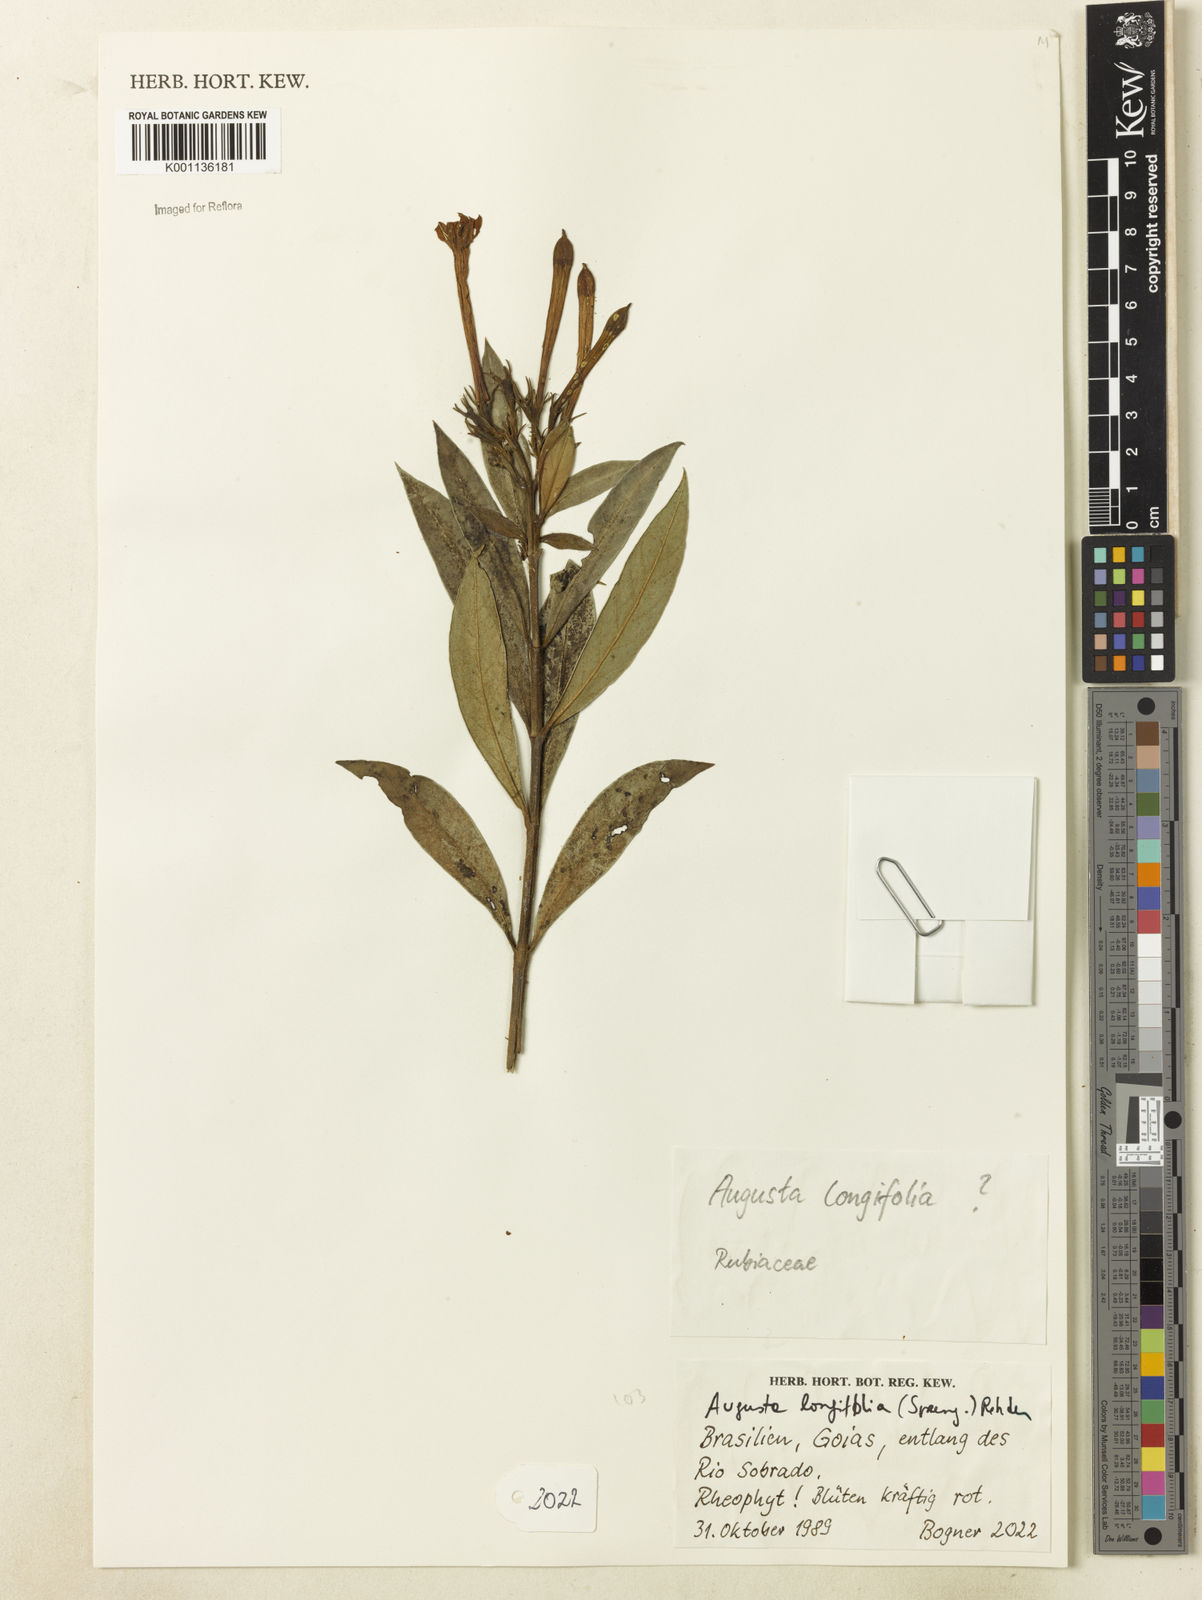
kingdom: Plantae
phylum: Tracheophyta
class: Magnoliopsida
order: Gentianales
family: Rubiaceae
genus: Augusta
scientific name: Augusta longifolia
